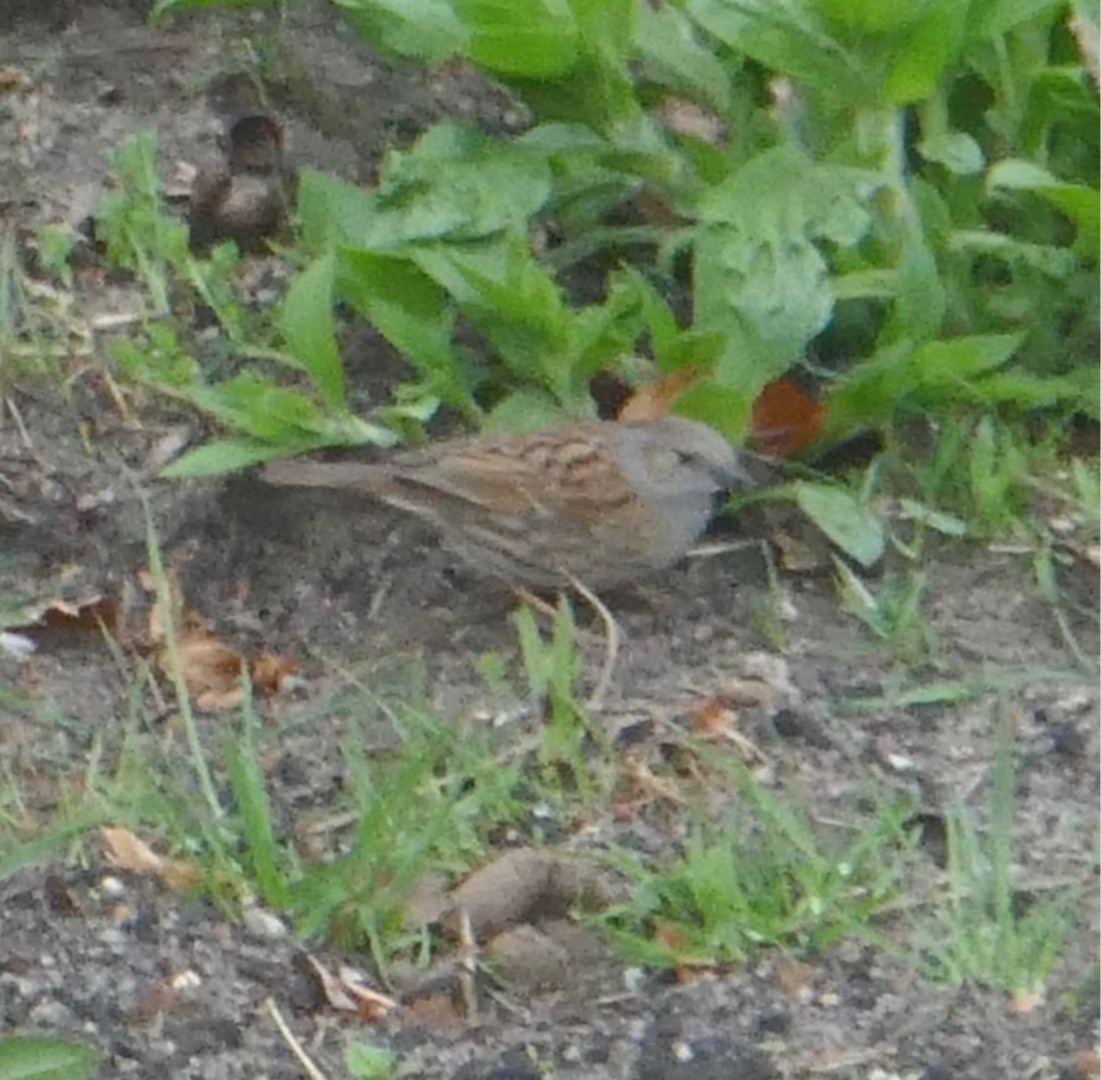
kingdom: Animalia
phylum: Chordata
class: Aves
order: Passeriformes
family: Prunellidae
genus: Prunella
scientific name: Prunella modularis
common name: Jernspurv
